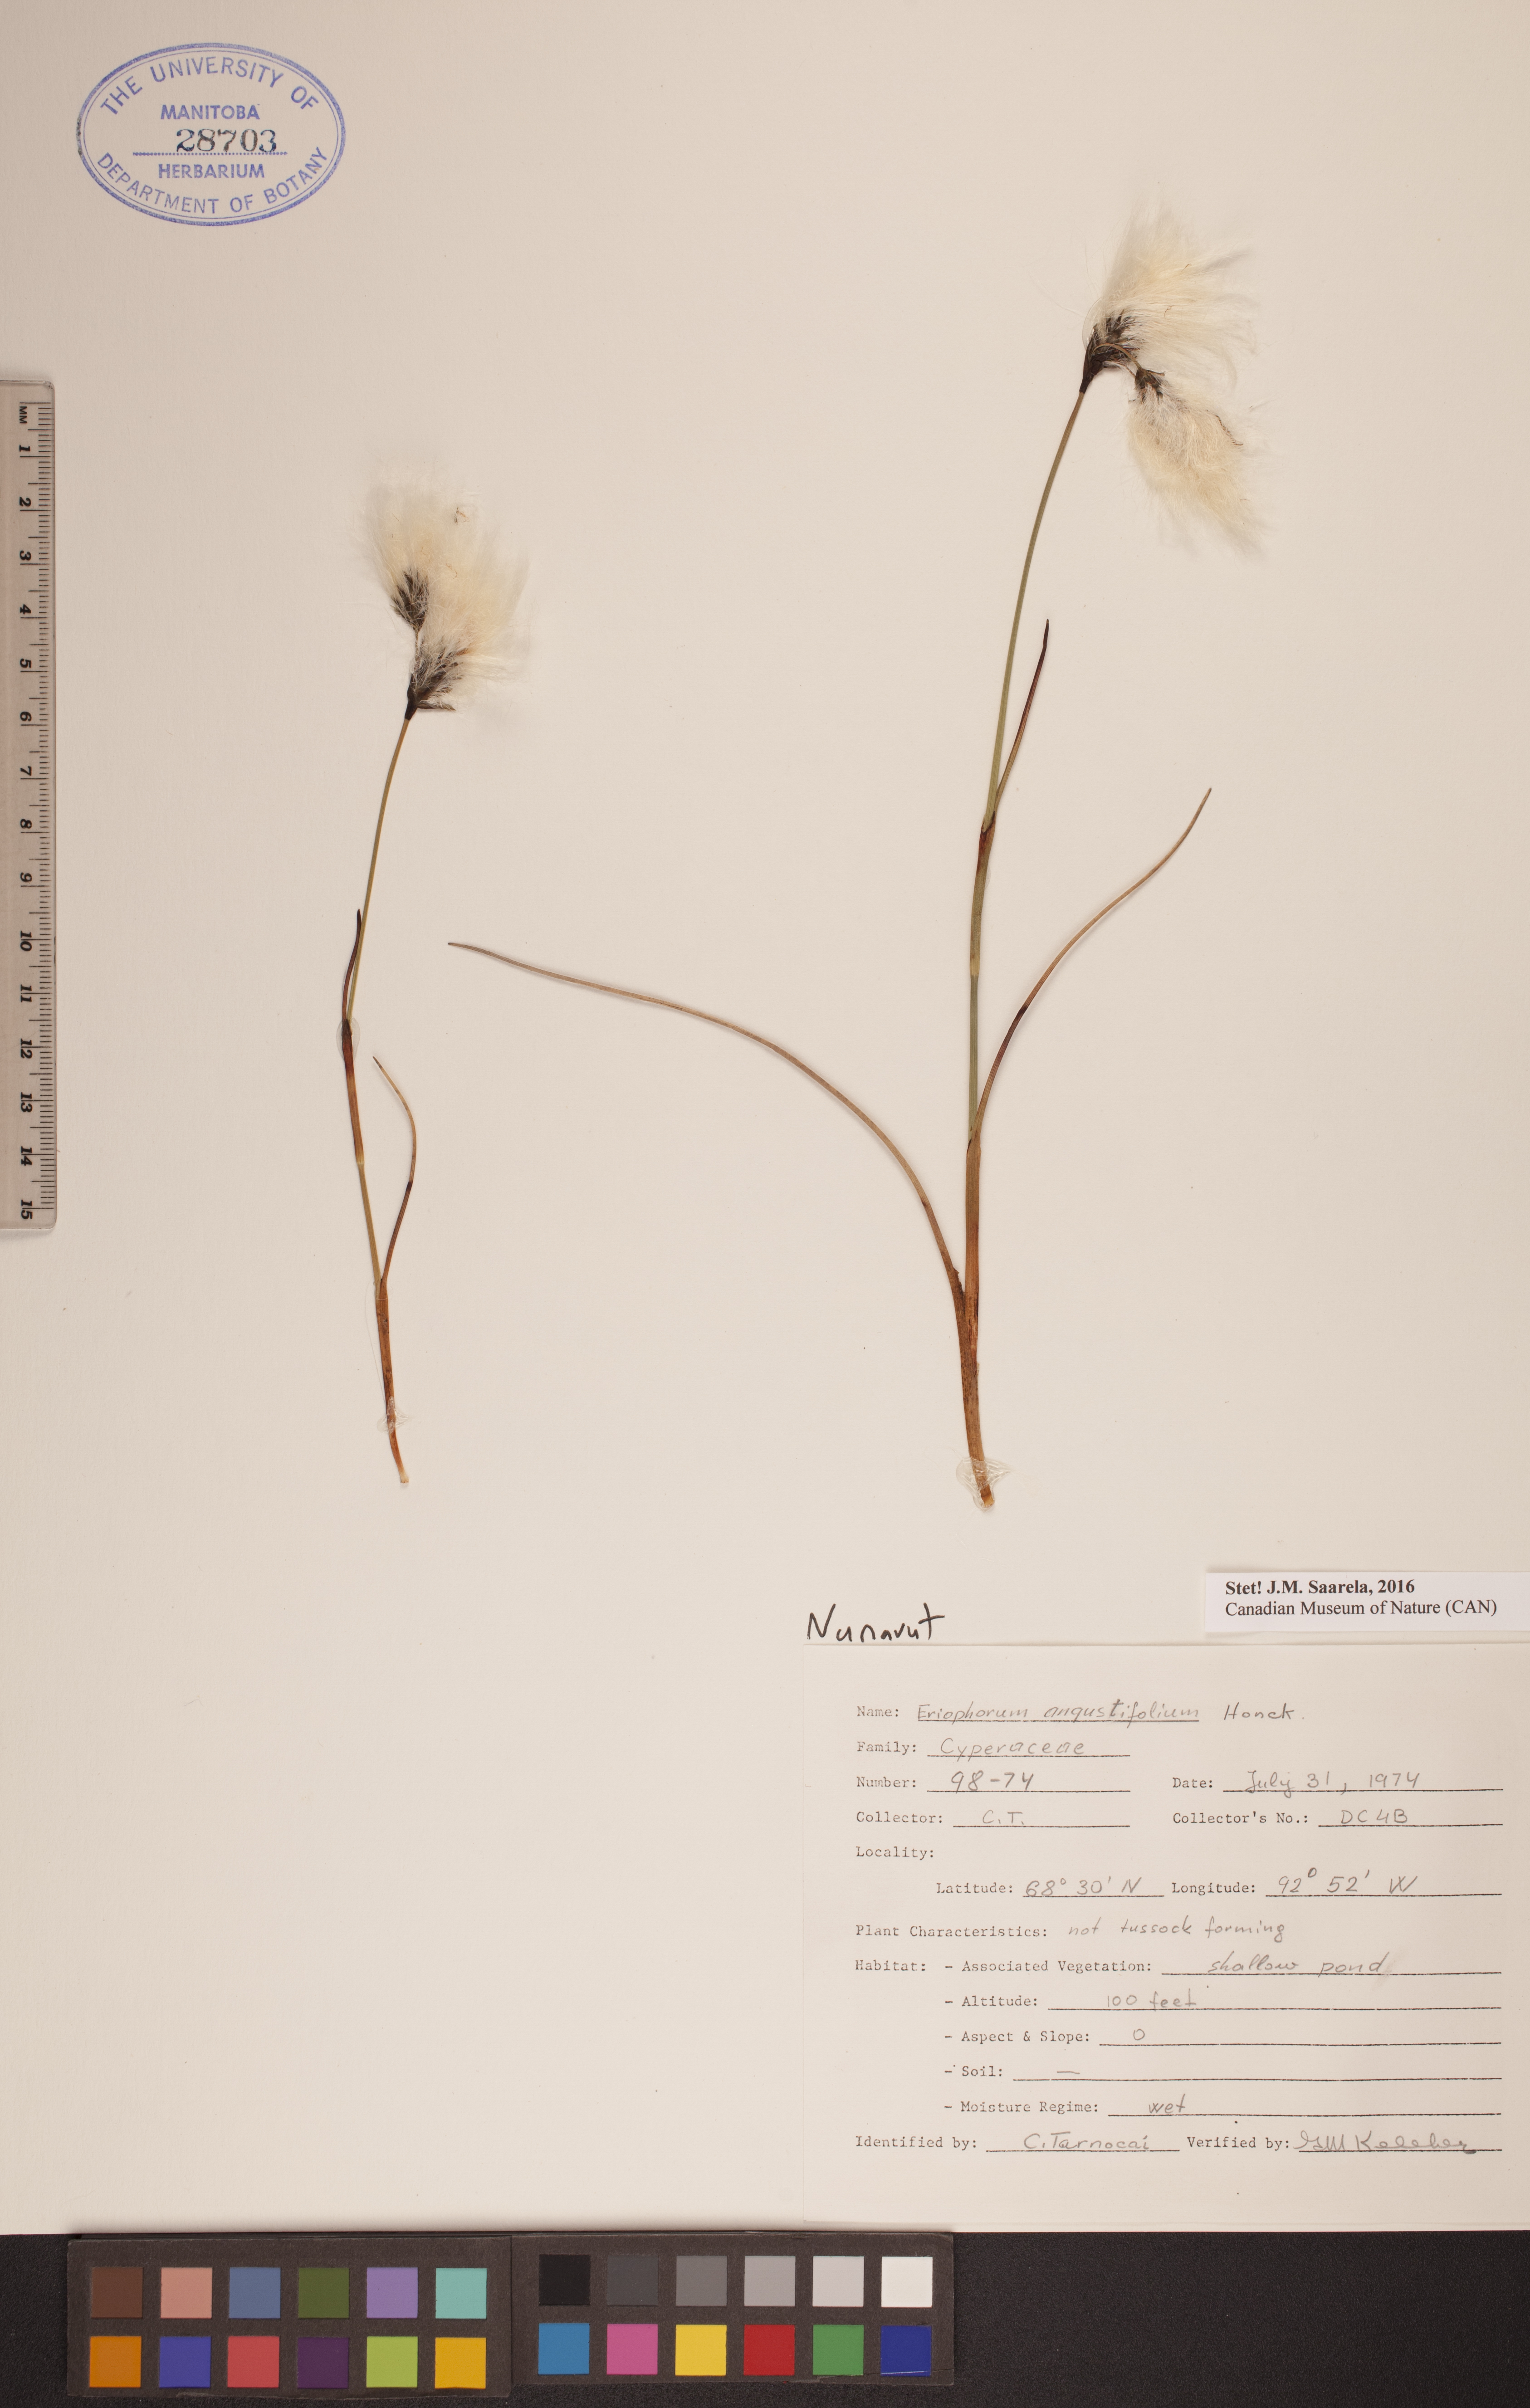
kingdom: Plantae
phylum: Tracheophyta
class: Liliopsida
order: Poales
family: Cyperaceae
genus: Eriophorum
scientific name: Eriophorum angustifolium
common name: Common cottongrass
